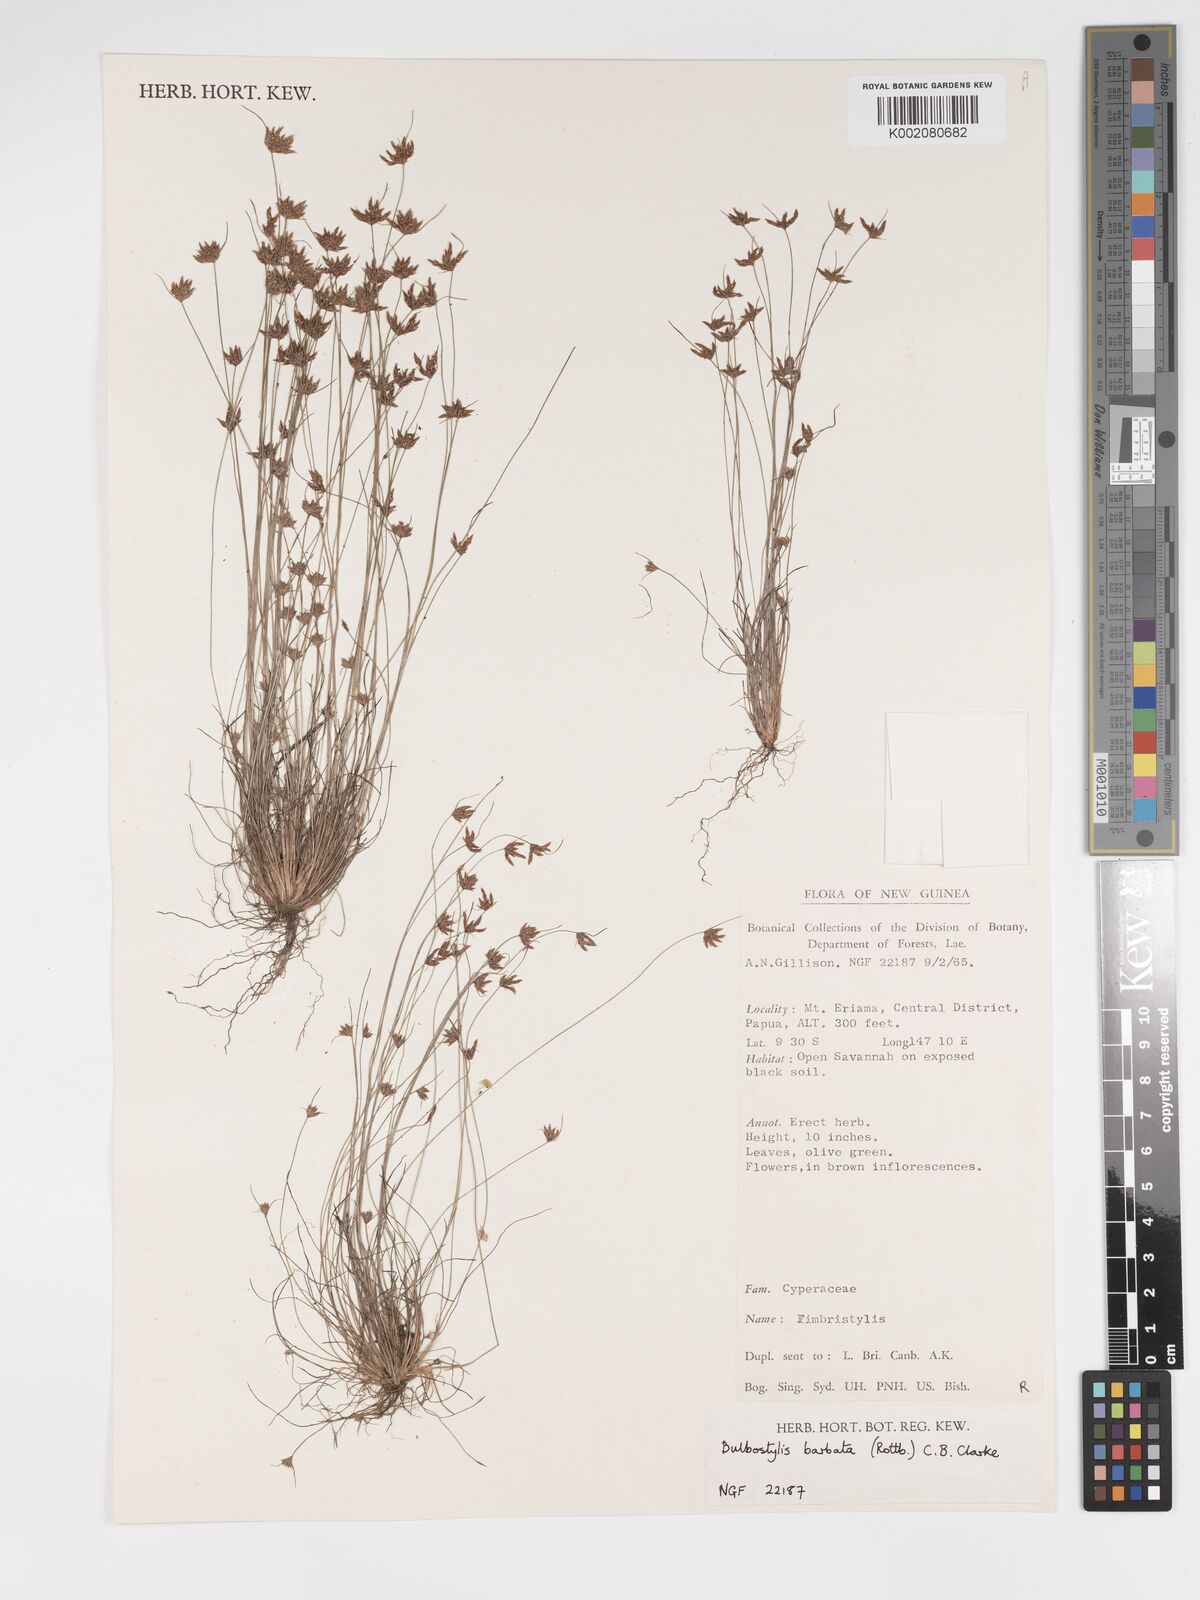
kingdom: Plantae
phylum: Tracheophyta
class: Liliopsida
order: Poales
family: Cyperaceae
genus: Bulbostylis
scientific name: Bulbostylis barbata
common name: Watergrass
